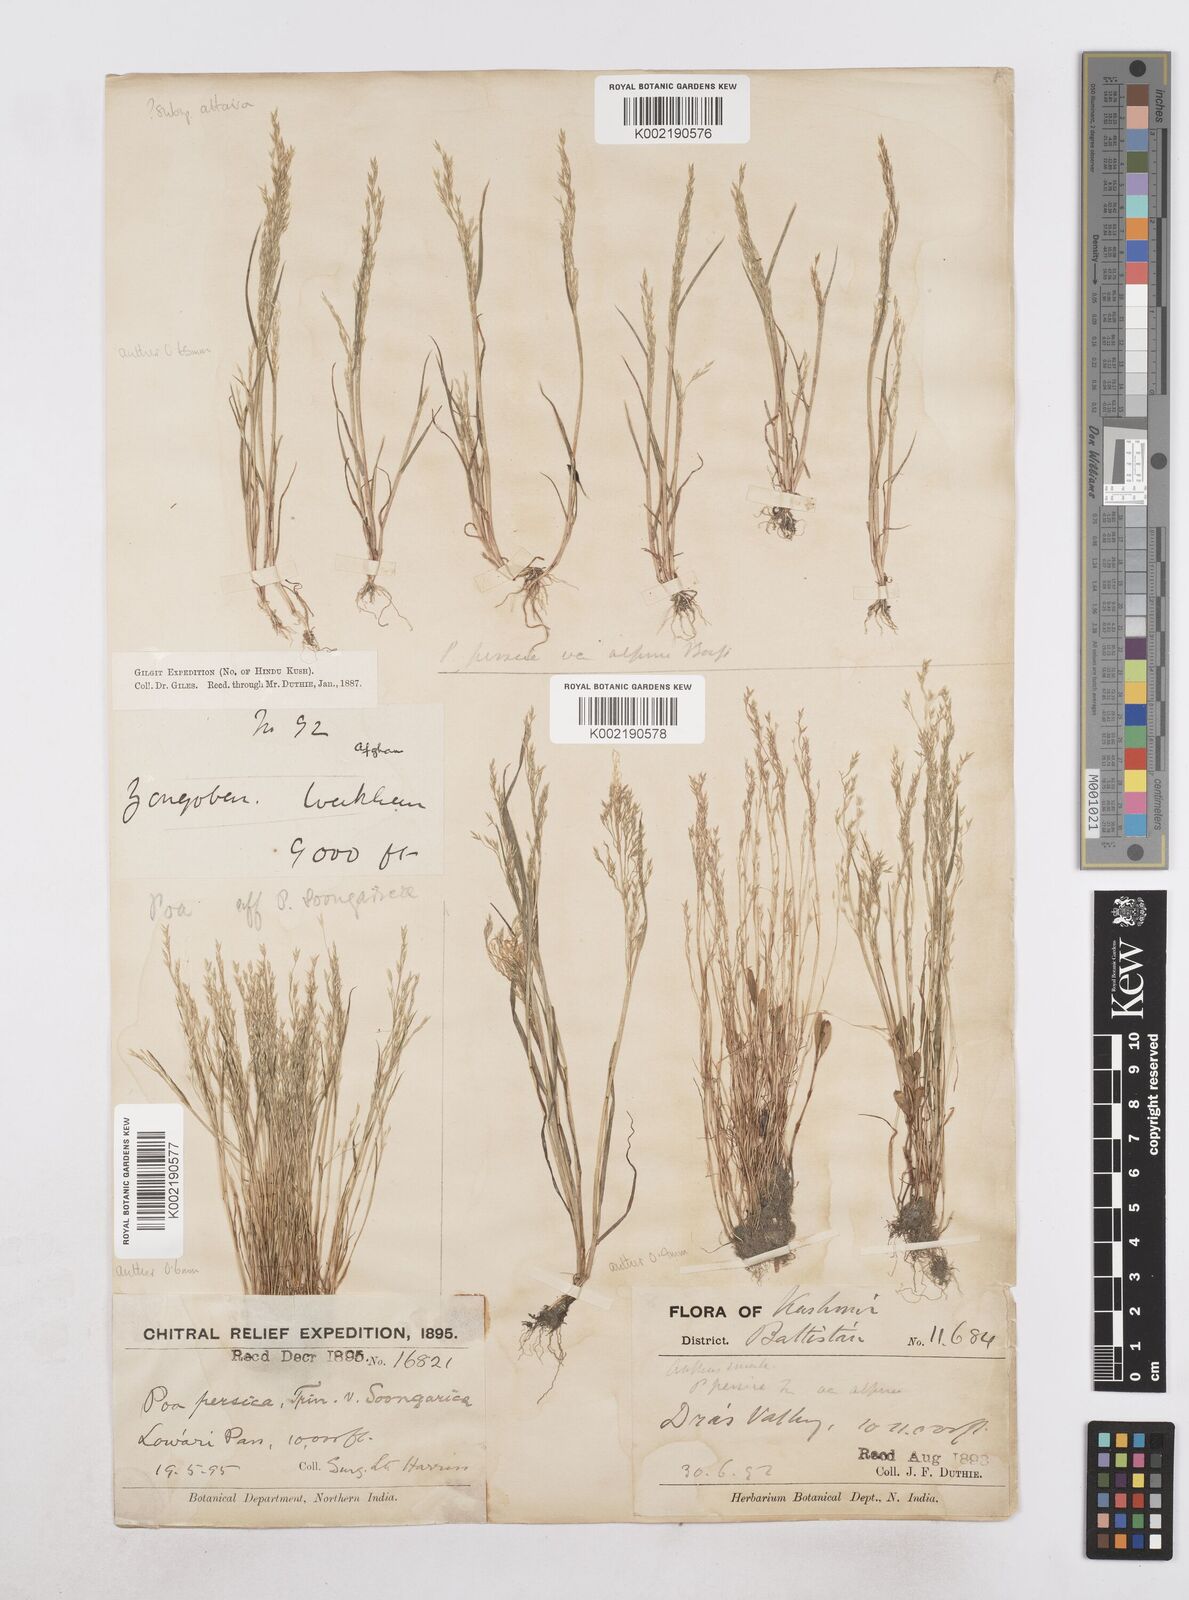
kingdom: Plantae
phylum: Tracheophyta
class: Liliopsida
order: Poales
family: Poaceae
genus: Poa
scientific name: Poa diaphora
